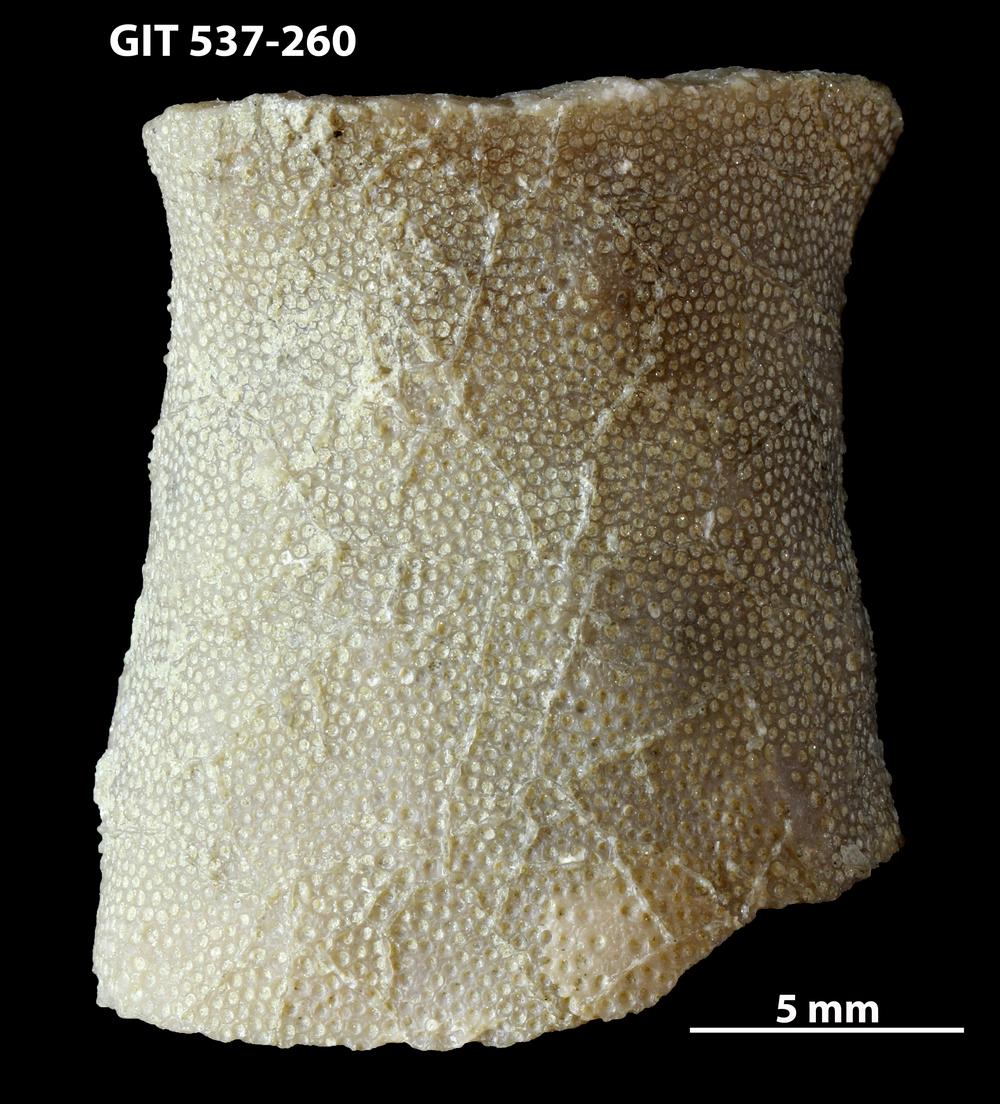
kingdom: Animalia
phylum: Bryozoa
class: Stenolaemata
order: Cyclostomatida
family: Corynotrypidae
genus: Corynotrypa
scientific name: Corynotrypa delicatula
